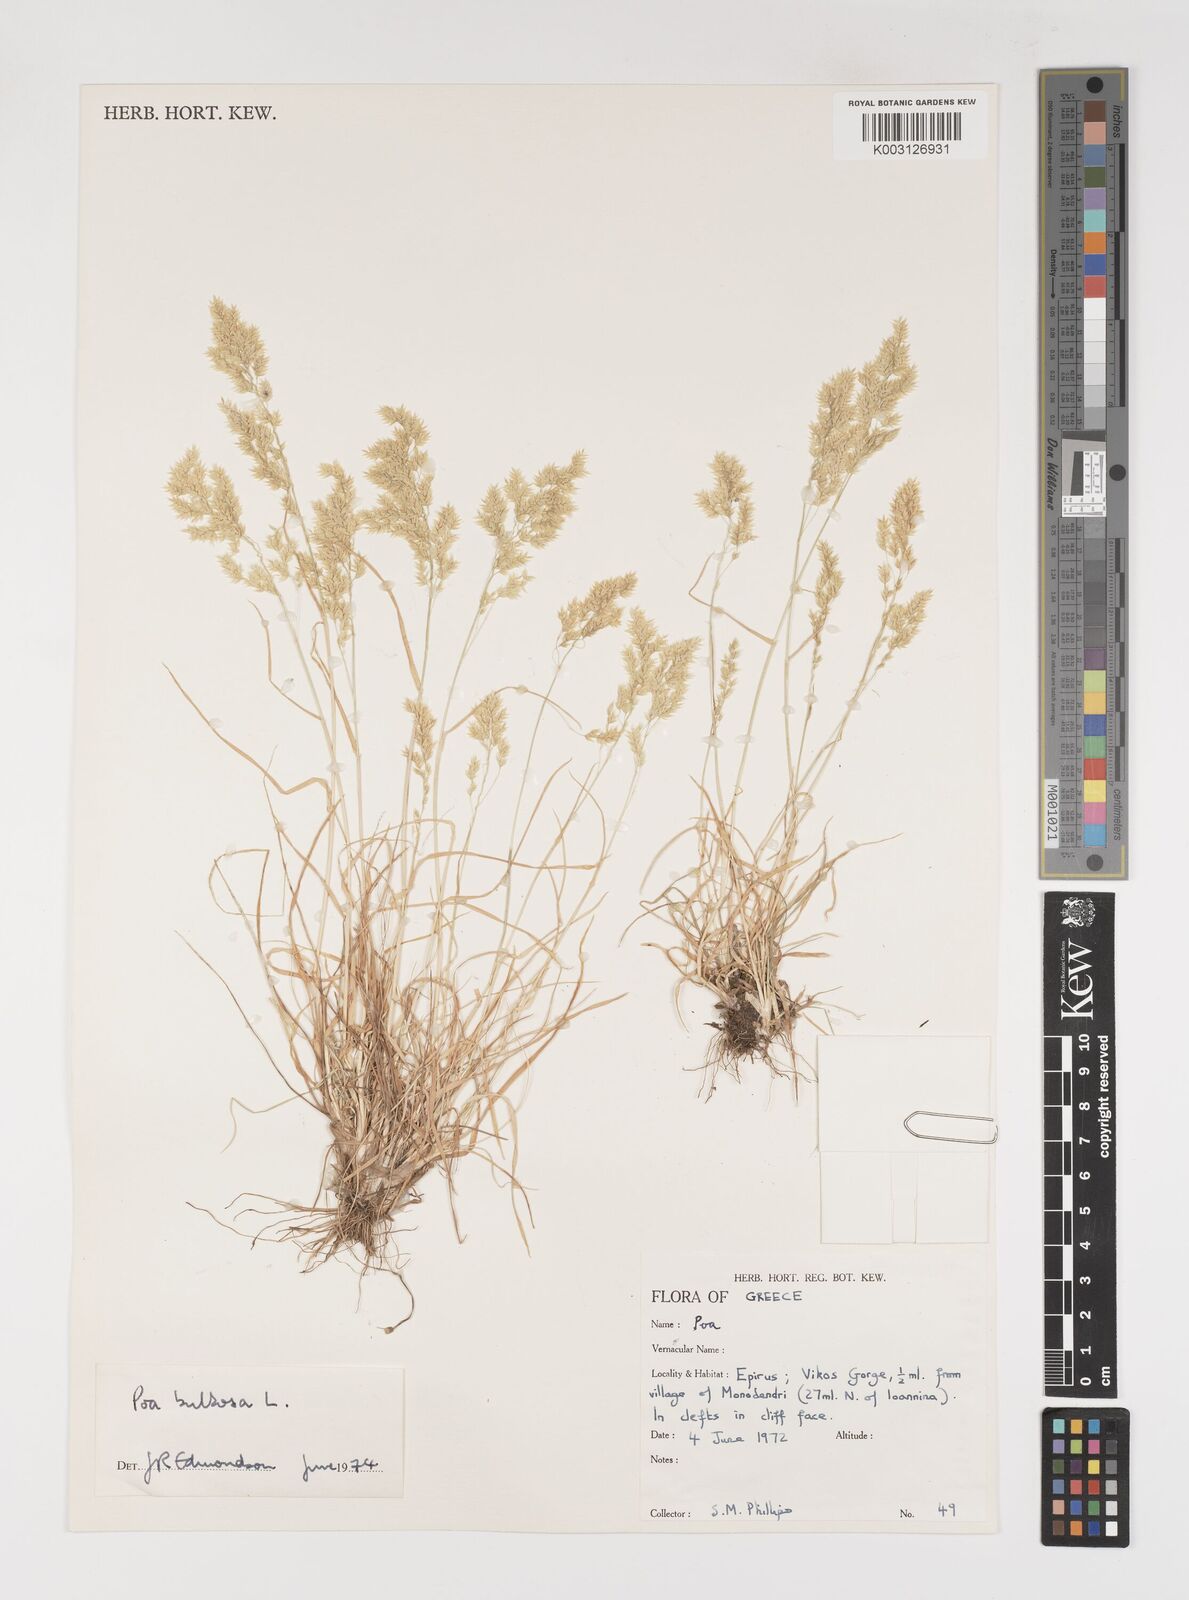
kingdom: Plantae
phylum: Tracheophyta
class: Liliopsida
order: Poales
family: Poaceae
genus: Poa
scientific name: Poa bulbosa
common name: Bulbous bluegrass
